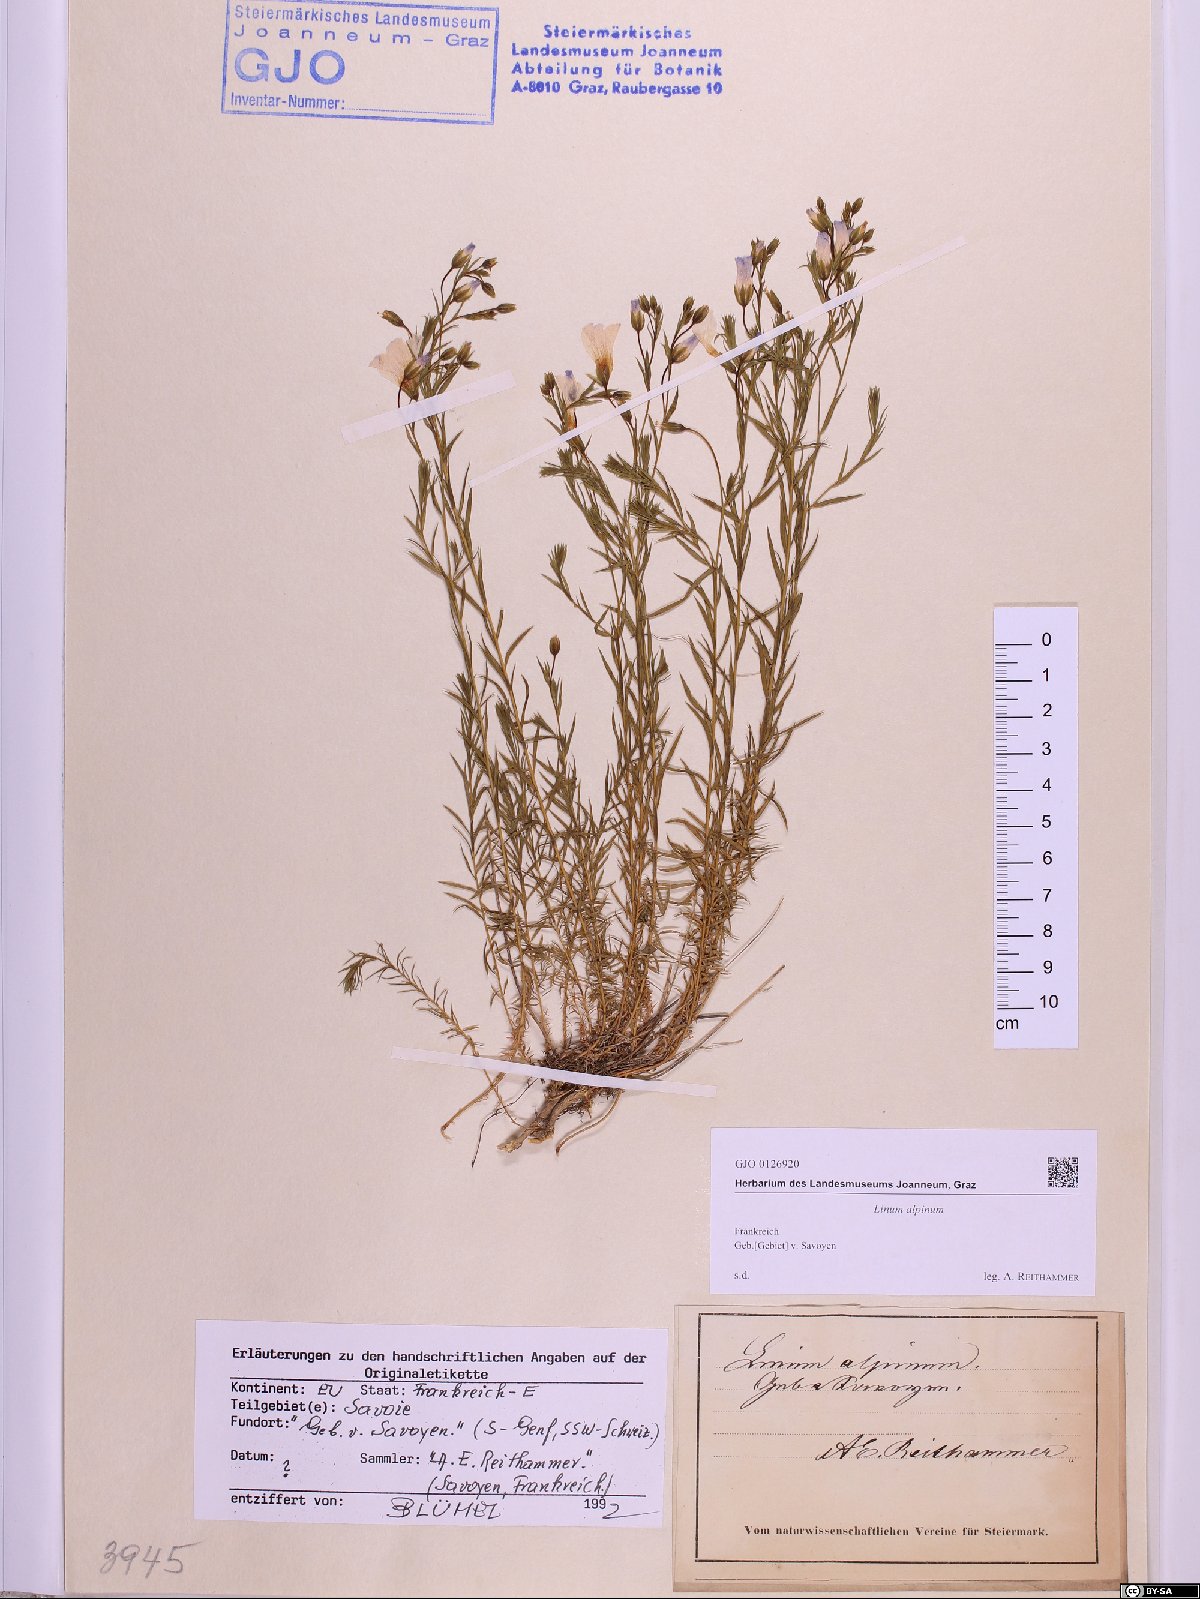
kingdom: Plantae
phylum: Tracheophyta
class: Magnoliopsida
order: Malpighiales
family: Linaceae
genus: Linum
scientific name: Linum alpinum
